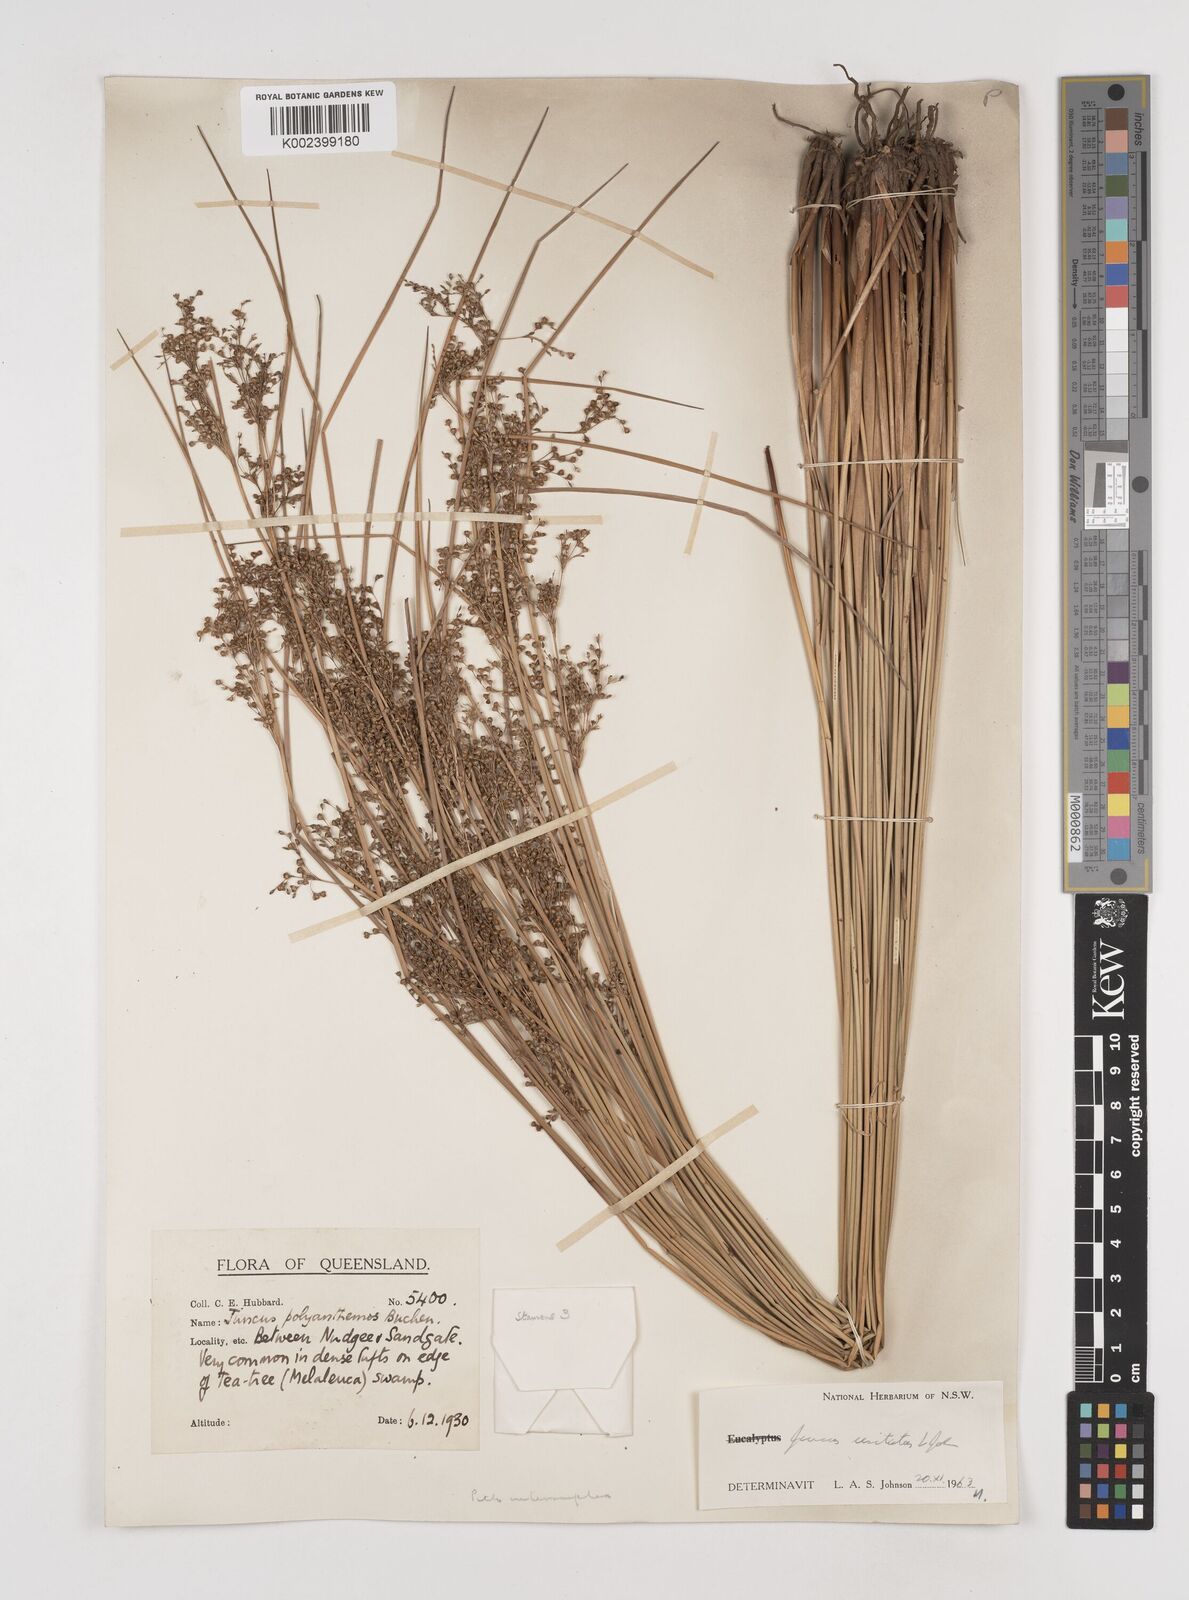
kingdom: Plantae
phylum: Tracheophyta
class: Liliopsida
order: Poales
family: Juncaceae
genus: Juncus
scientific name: Juncus usitatus
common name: Rush
